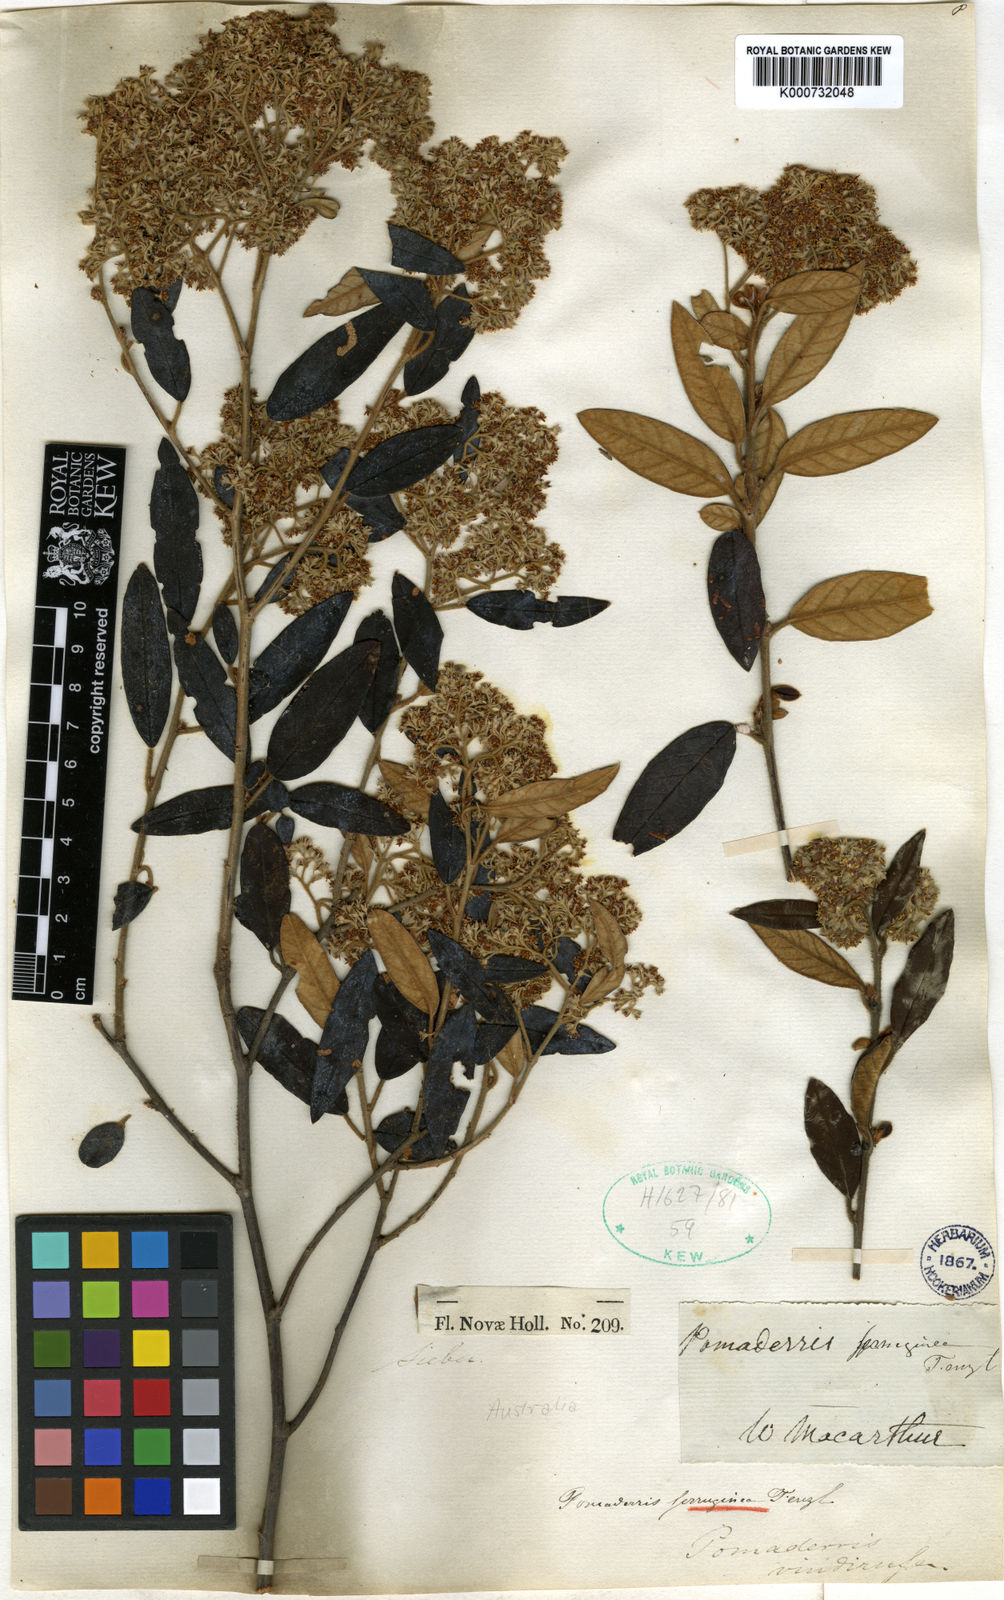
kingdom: Plantae
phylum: Tracheophyta
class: Magnoliopsida
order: Rosales
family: Rhamnaceae
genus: Pomaderris
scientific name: Pomaderris
